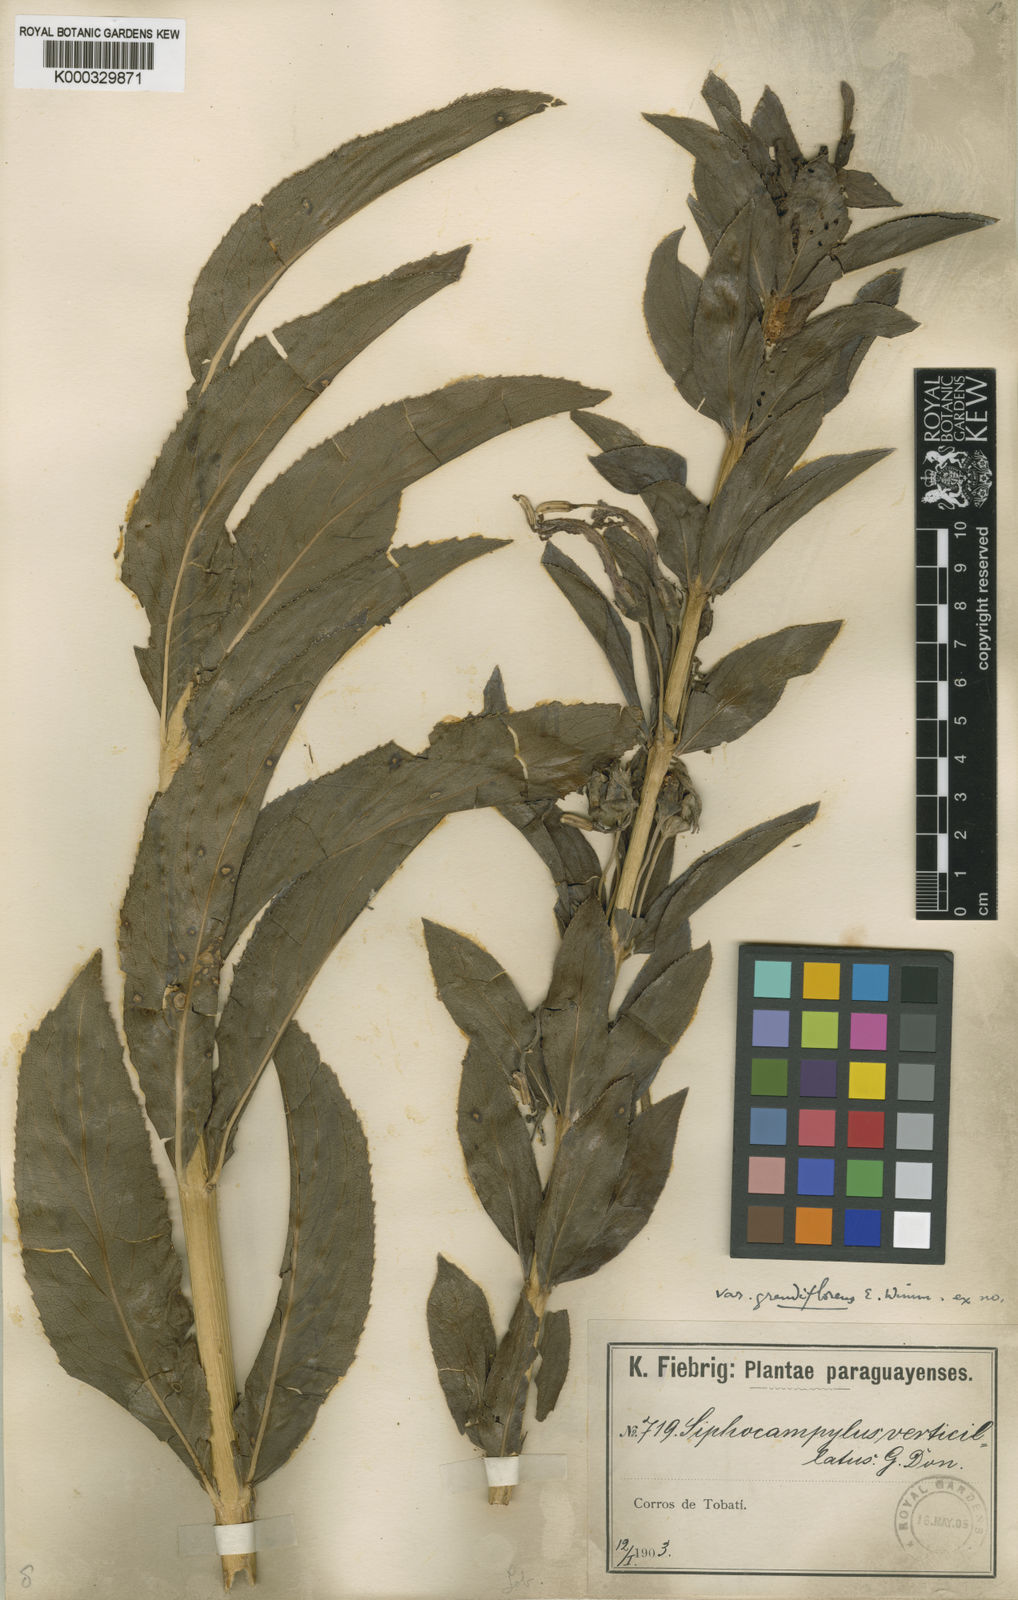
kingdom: Plantae
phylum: Tracheophyta
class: Magnoliopsida
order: Asterales
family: Campanulaceae
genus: Siphocampylus
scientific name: Siphocampylus verticillatus
